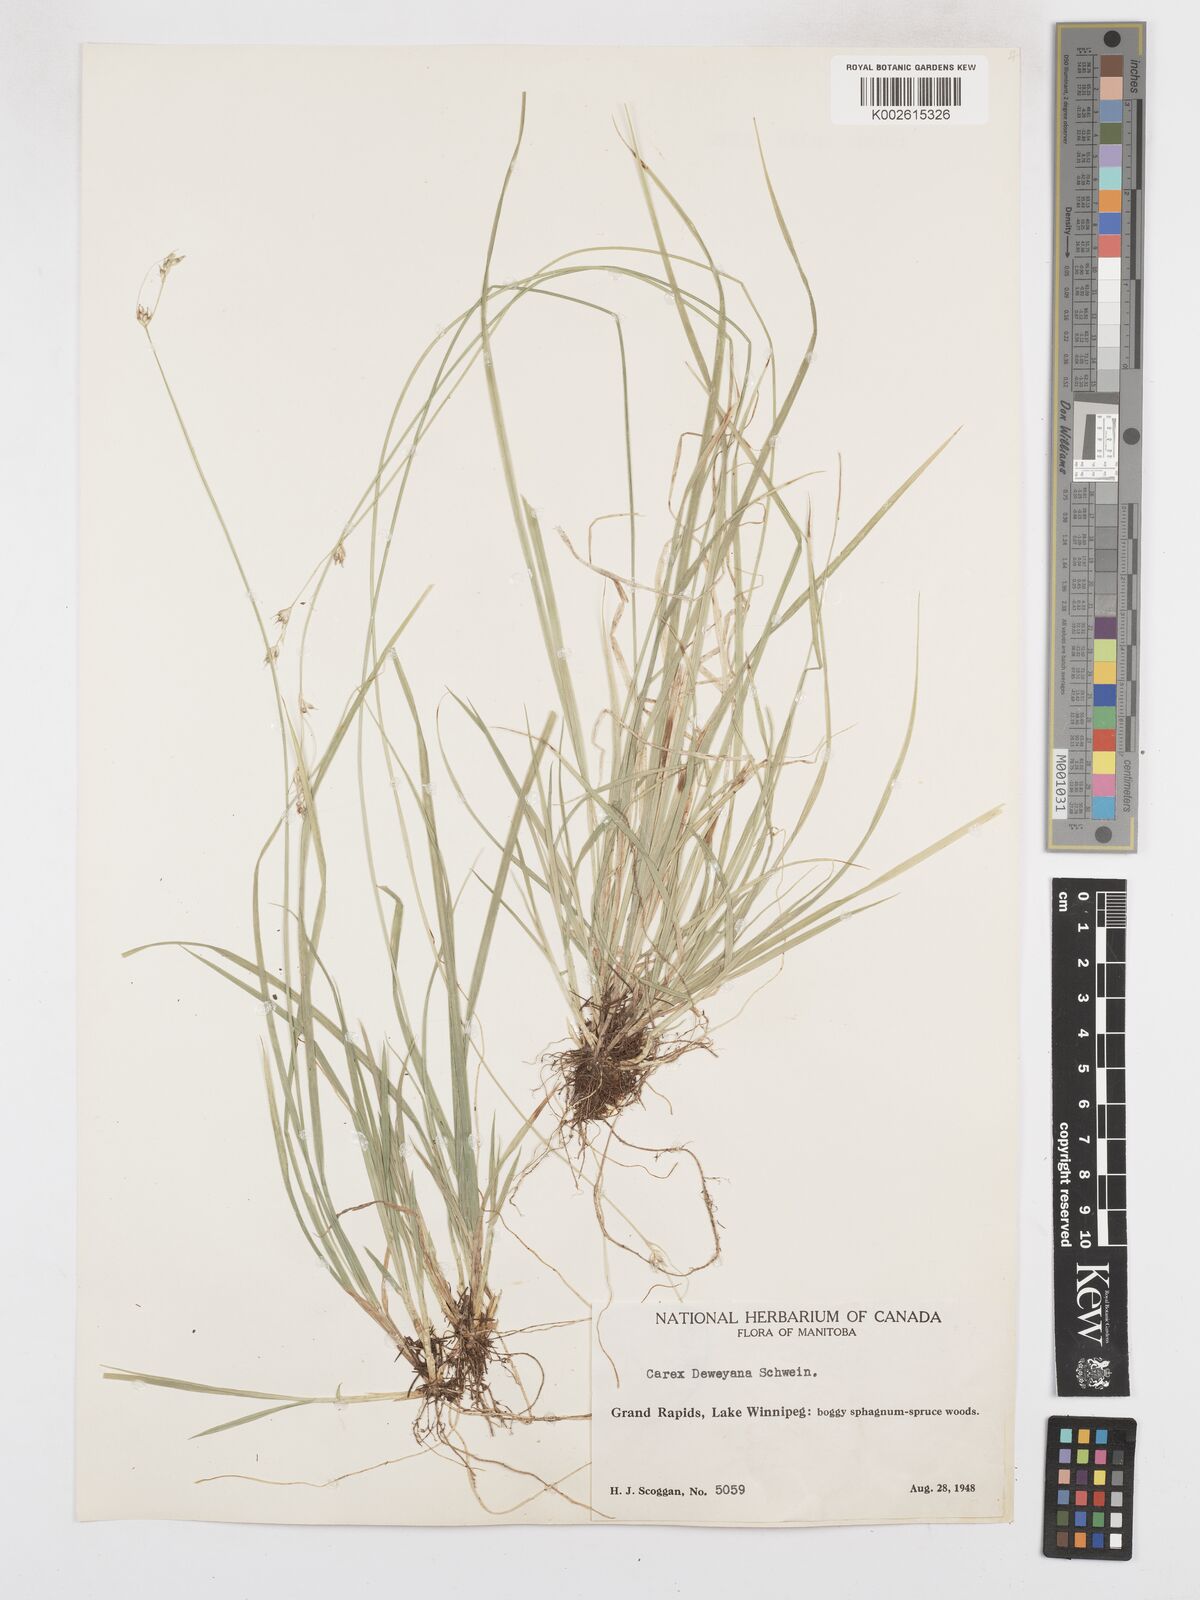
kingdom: Plantae
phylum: Tracheophyta
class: Liliopsida
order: Poales
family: Cyperaceae
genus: Carex
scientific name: Carex deweyana
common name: Dewey's sedge
